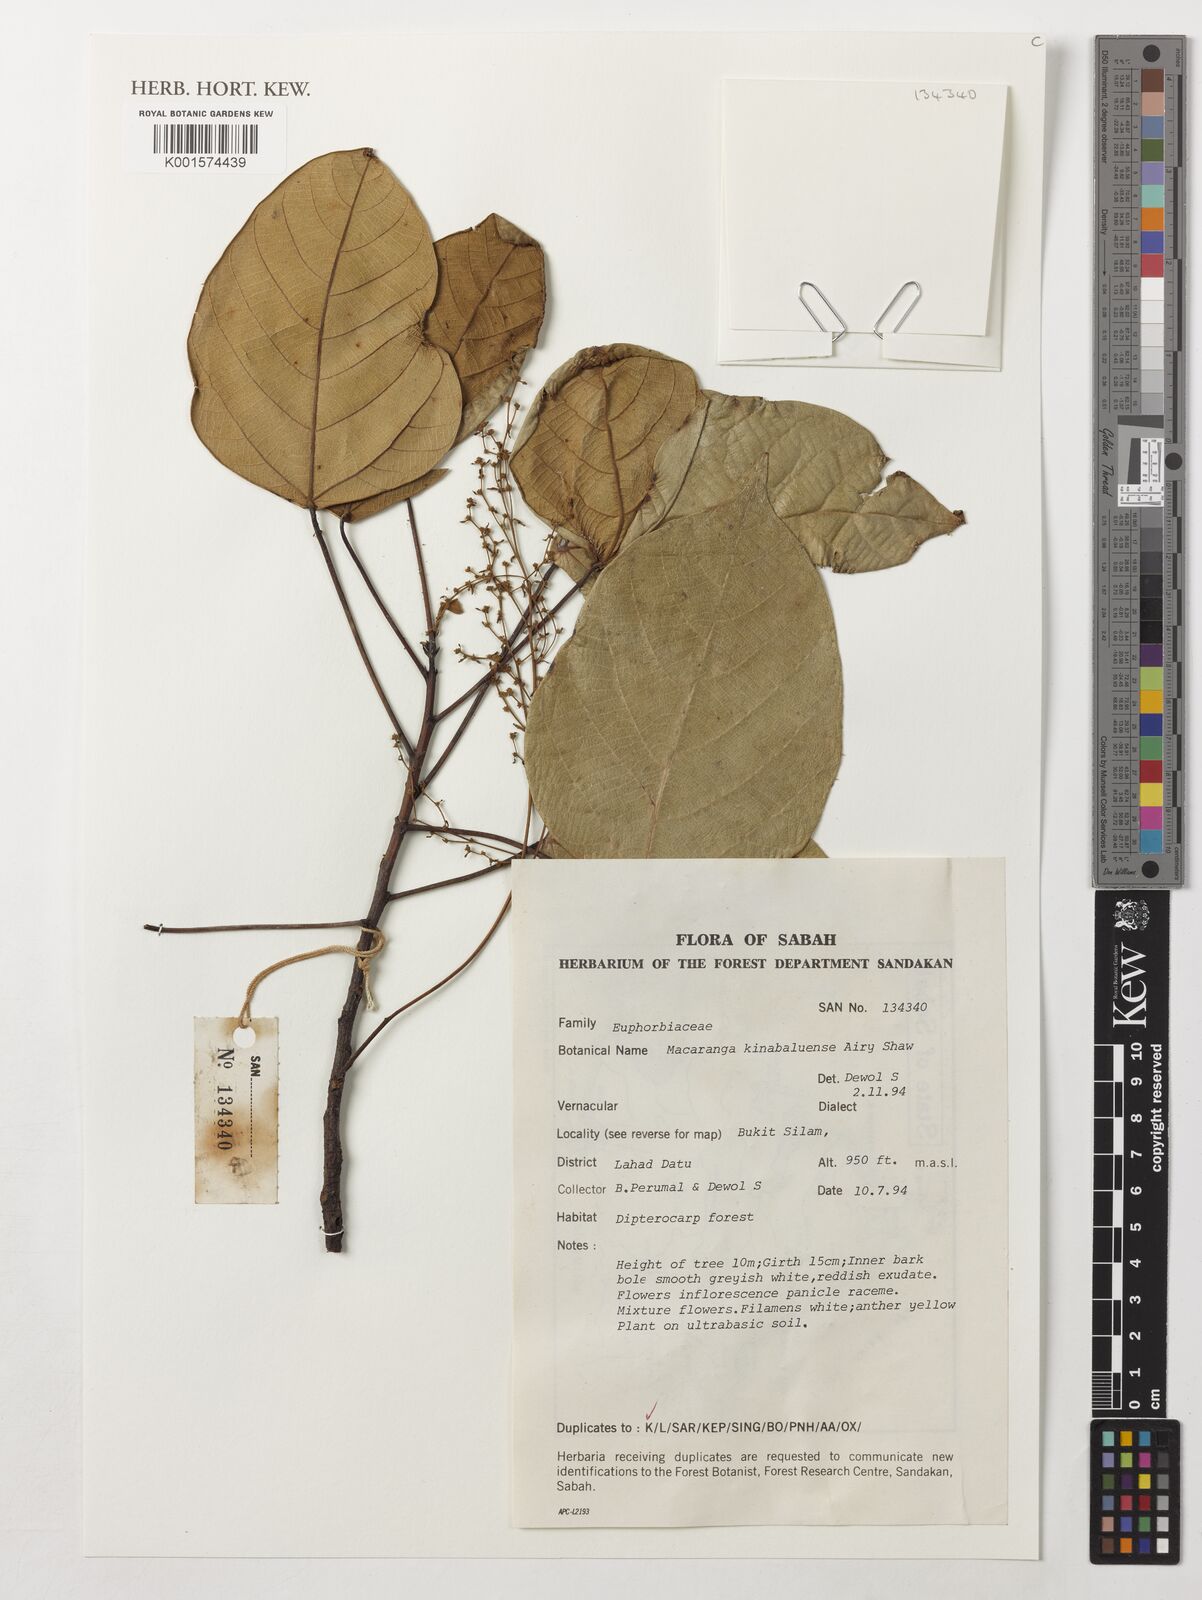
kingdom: Plantae
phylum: Tracheophyta
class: Magnoliopsida
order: Malpighiales
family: Euphorbiaceae
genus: Macaranga
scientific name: Macaranga kinabaluensis
